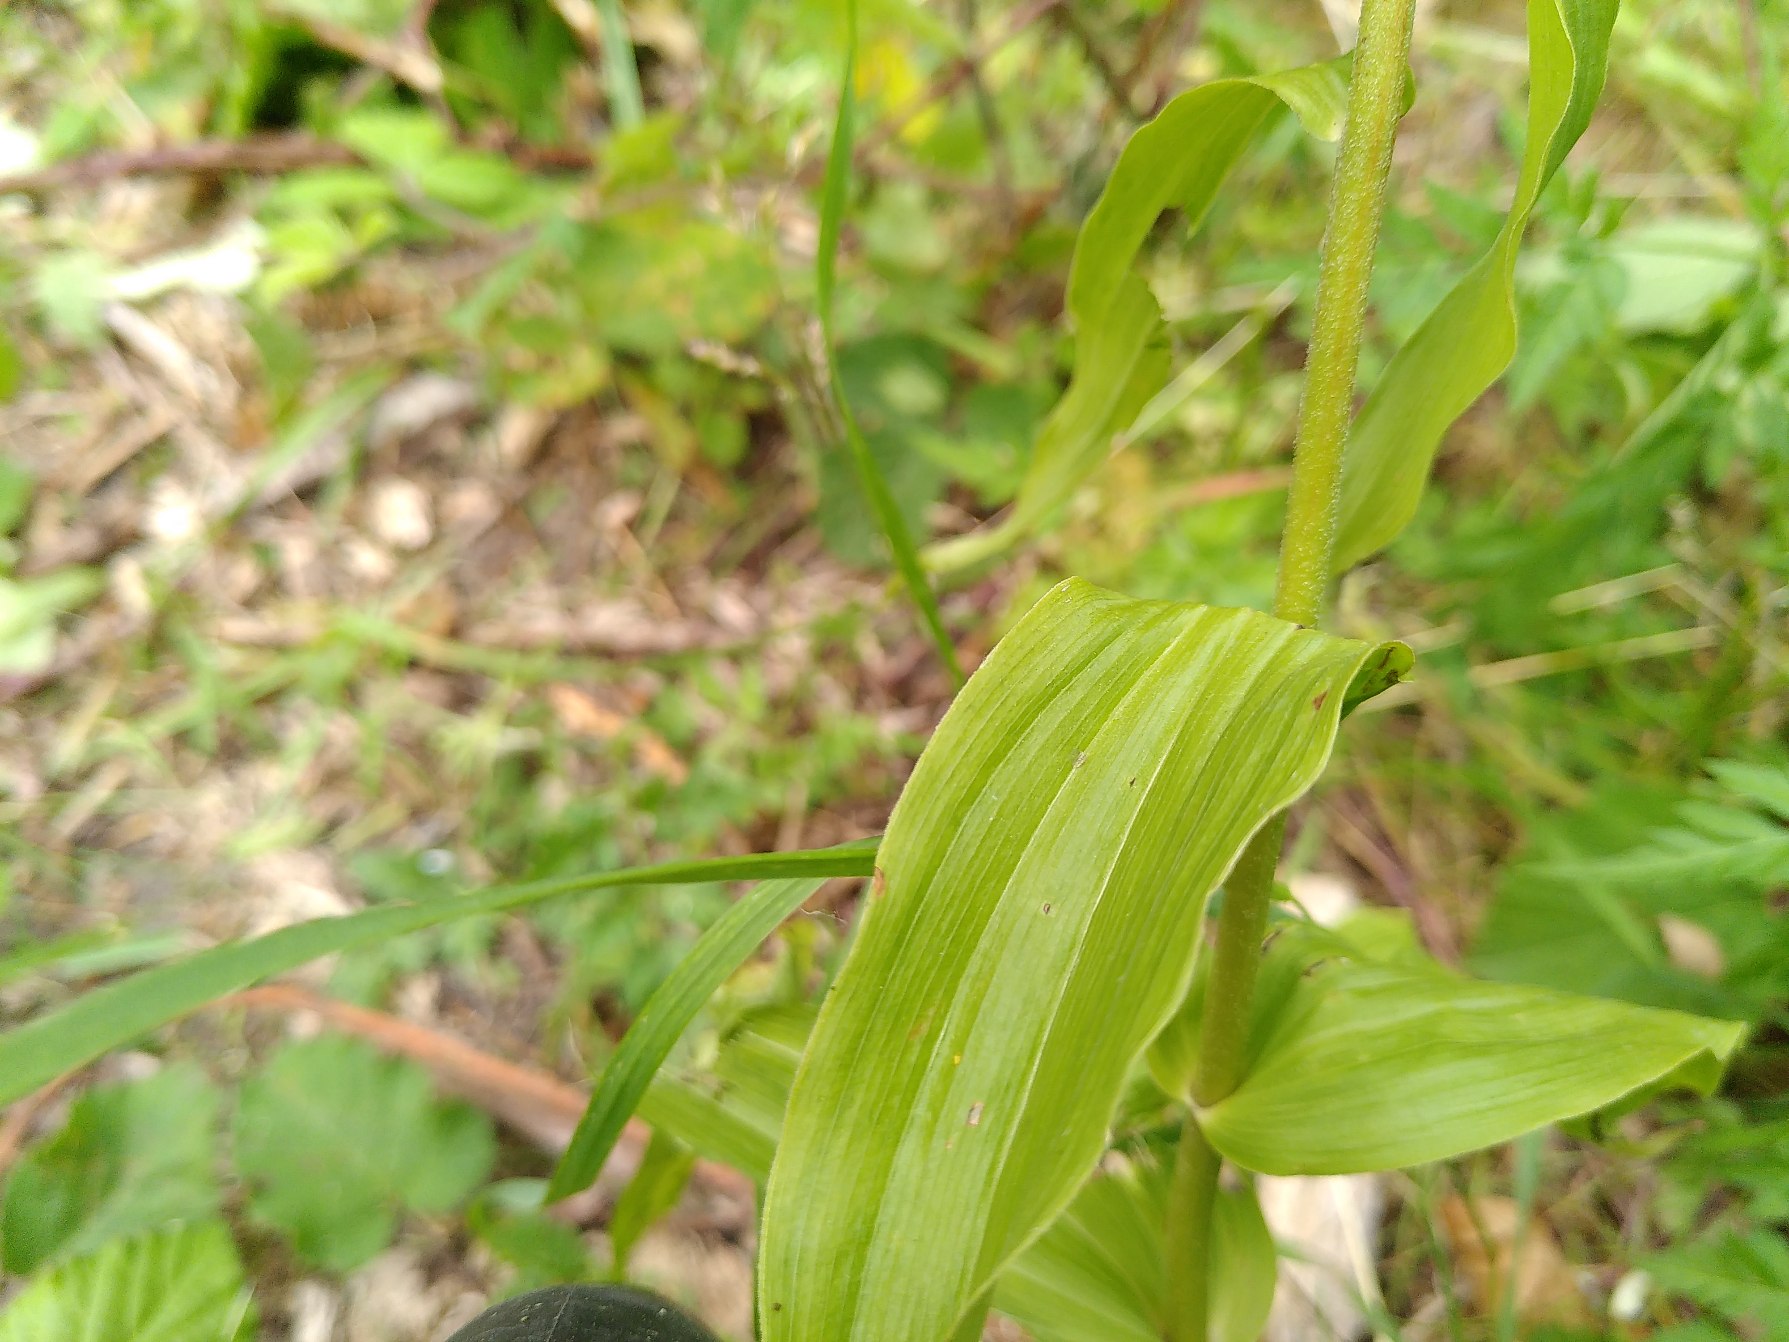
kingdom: Plantae
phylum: Tracheophyta
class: Liliopsida
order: Asparagales
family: Orchidaceae
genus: Epipactis
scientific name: Epipactis helleborine
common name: Skov-hullæbe
